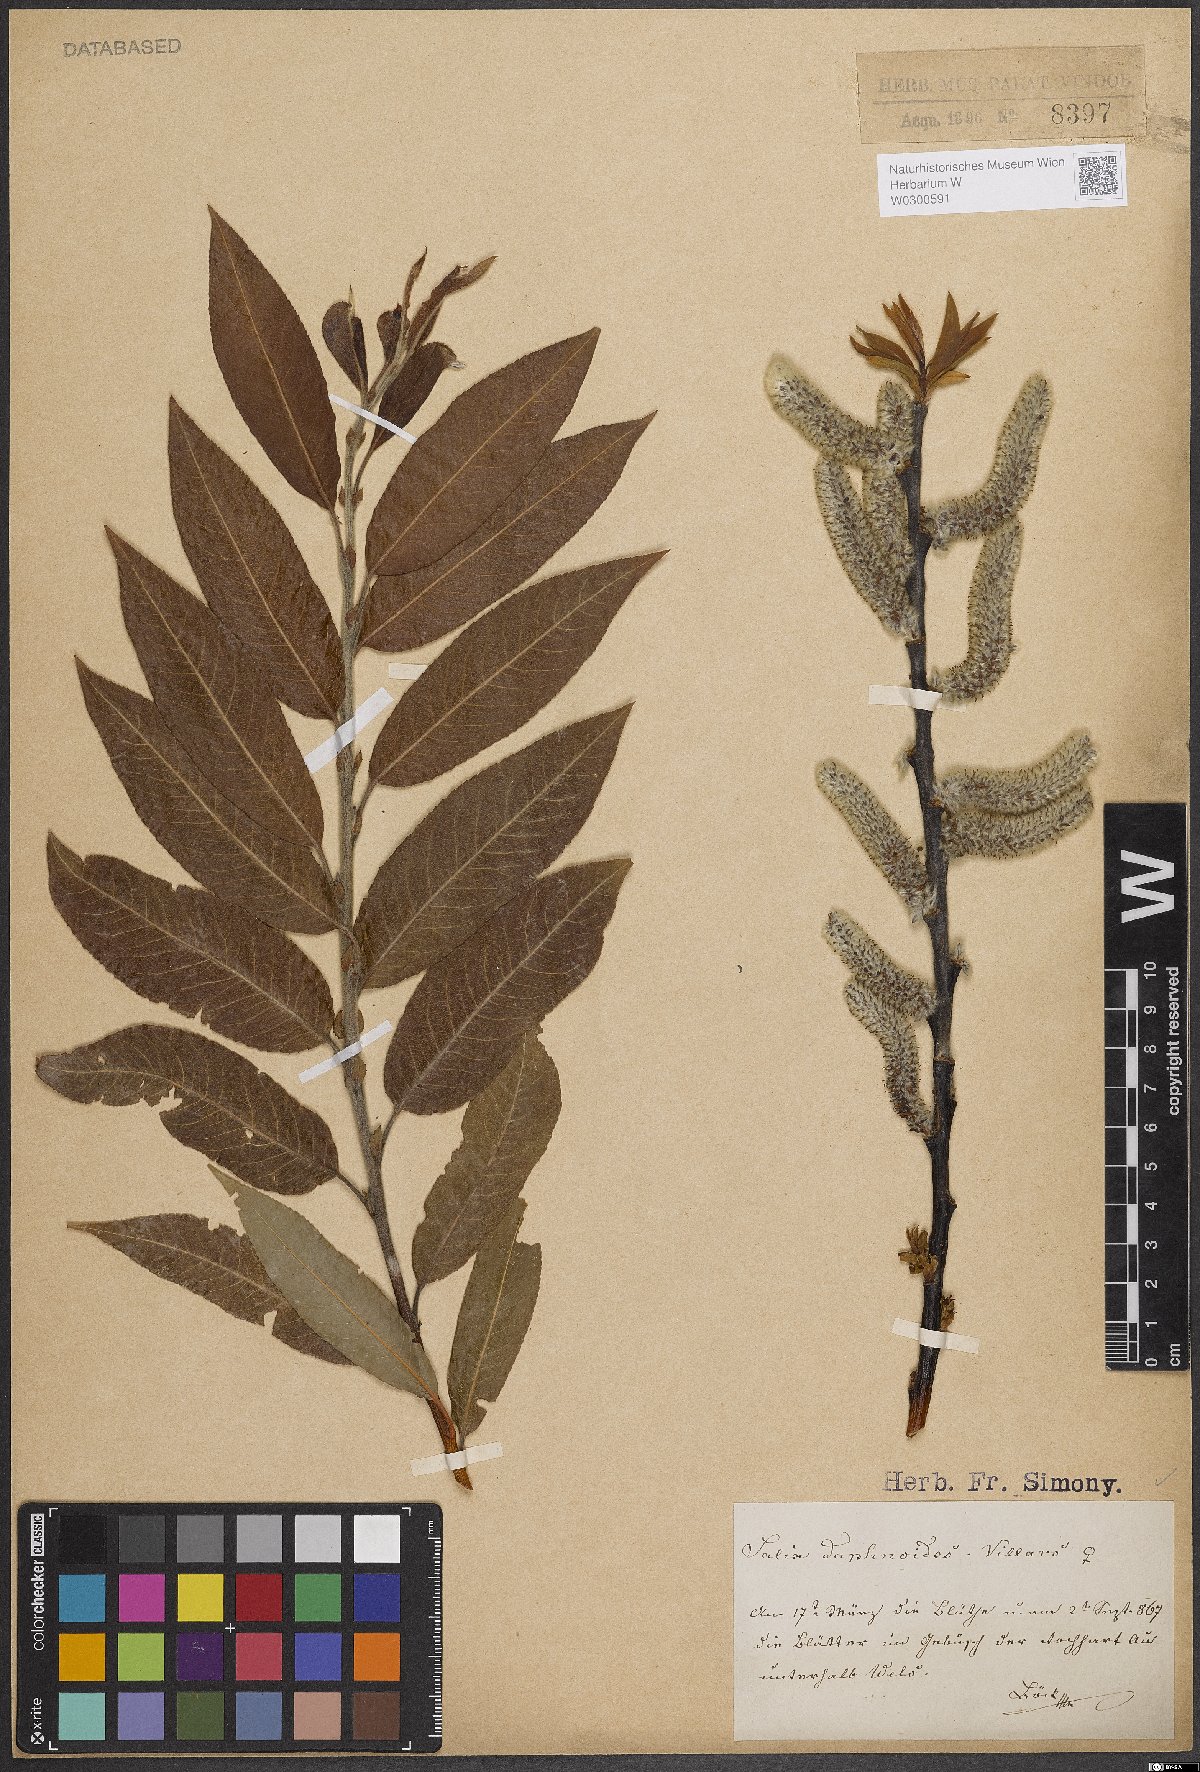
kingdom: Plantae
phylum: Tracheophyta
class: Magnoliopsida
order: Malpighiales
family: Salicaceae
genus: Salix
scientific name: Salix daphnoides
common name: European violet-willow
